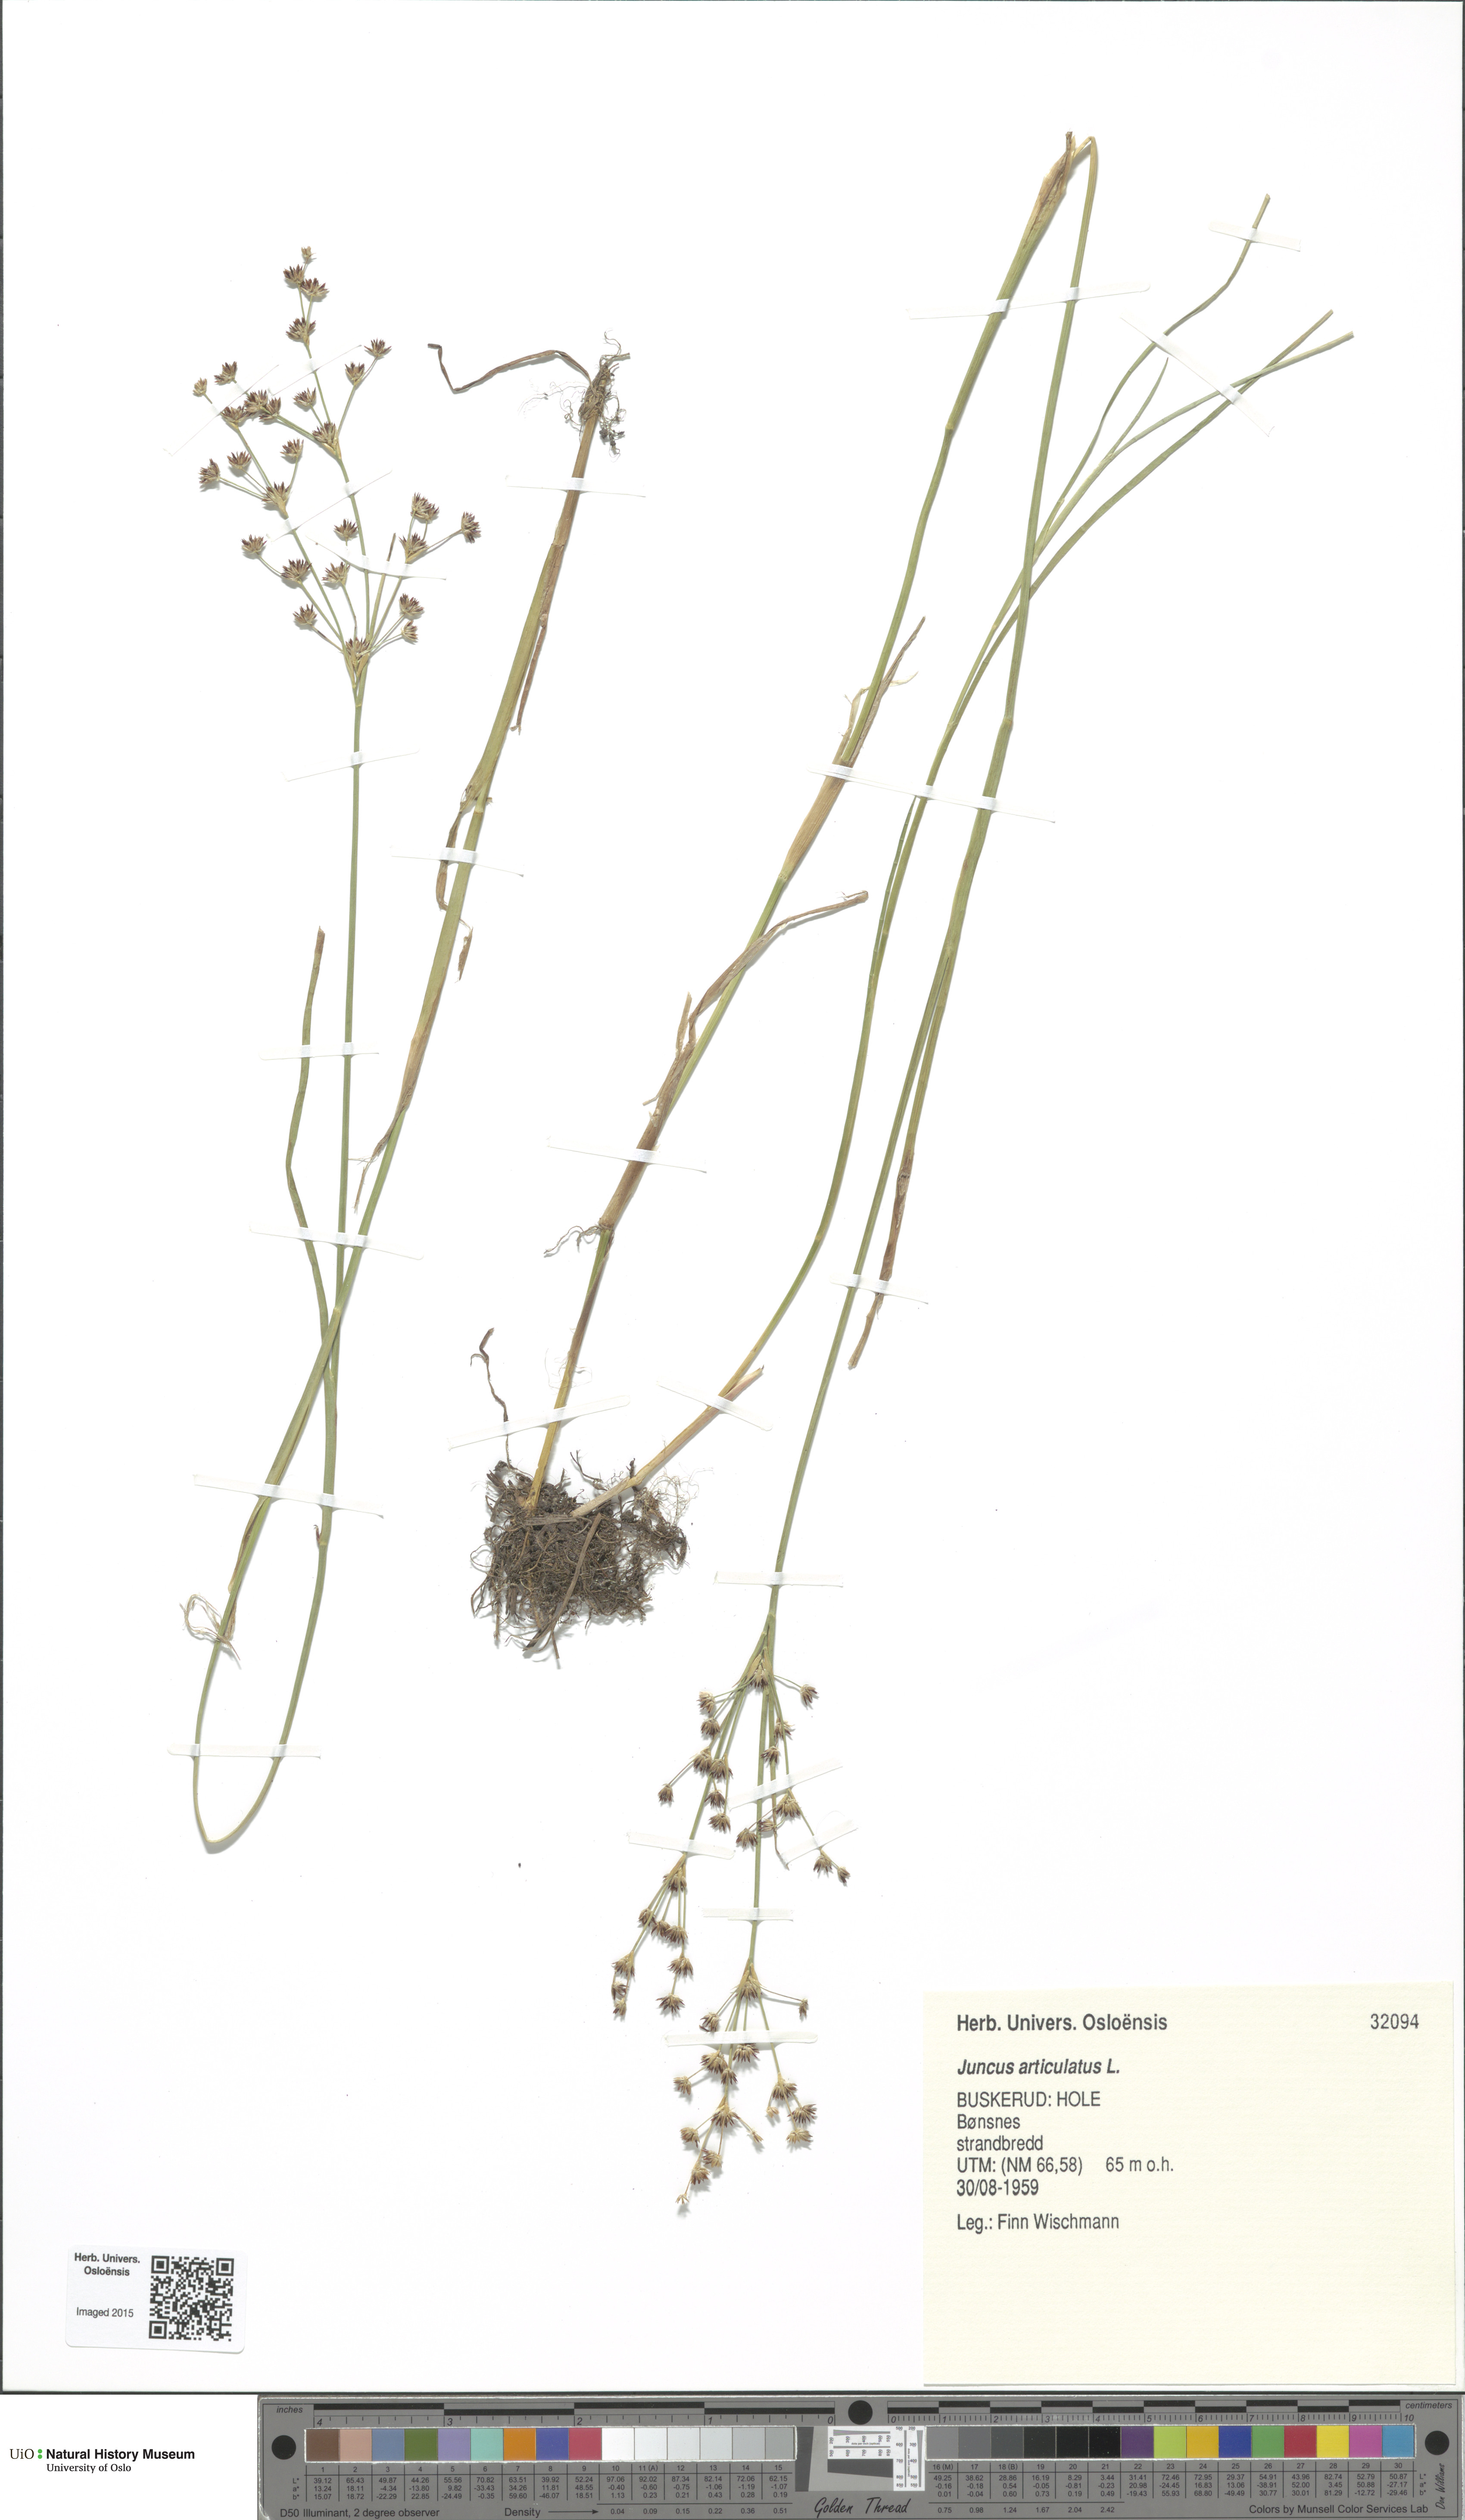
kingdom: Plantae
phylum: Tracheophyta
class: Liliopsida
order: Poales
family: Juncaceae
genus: Juncus
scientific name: Juncus articulatus
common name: Jointed rush
